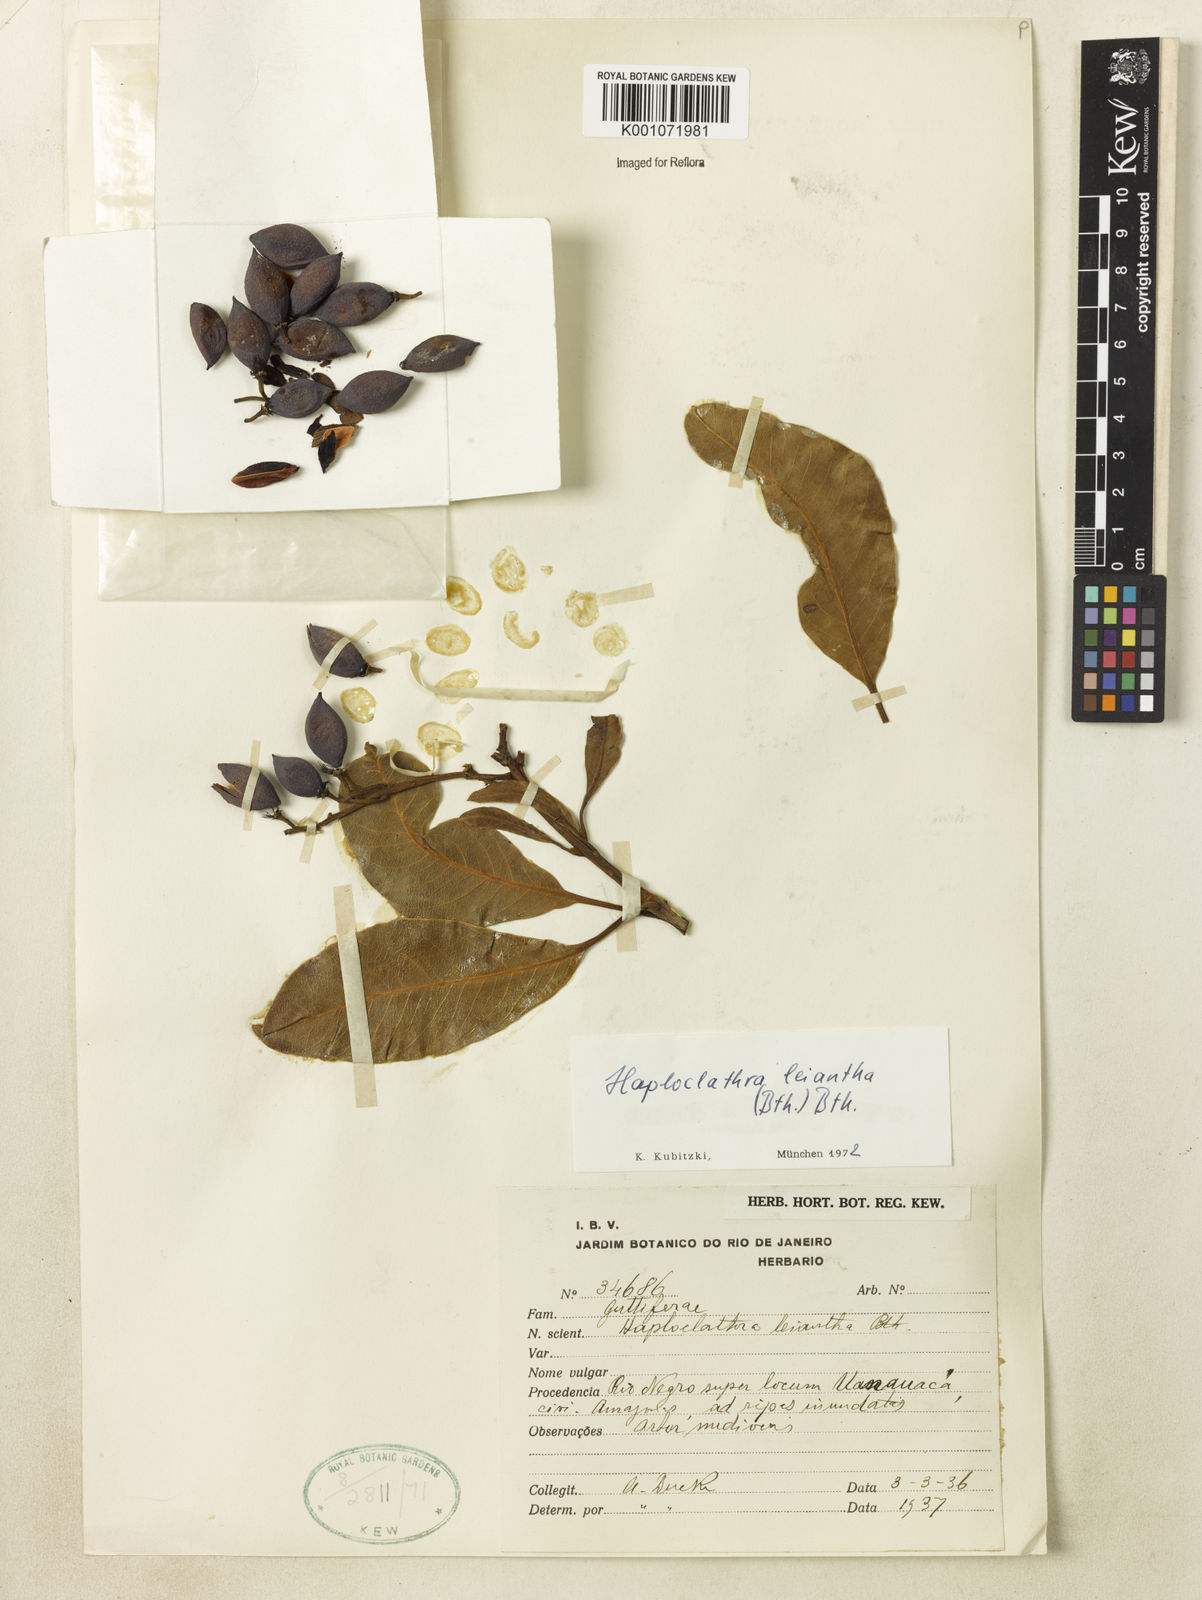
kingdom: Plantae
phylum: Tracheophyta
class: Magnoliopsida
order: Malpighiales
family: Calophyllaceae
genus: Haploclathra
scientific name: Haploclathra leiantha
